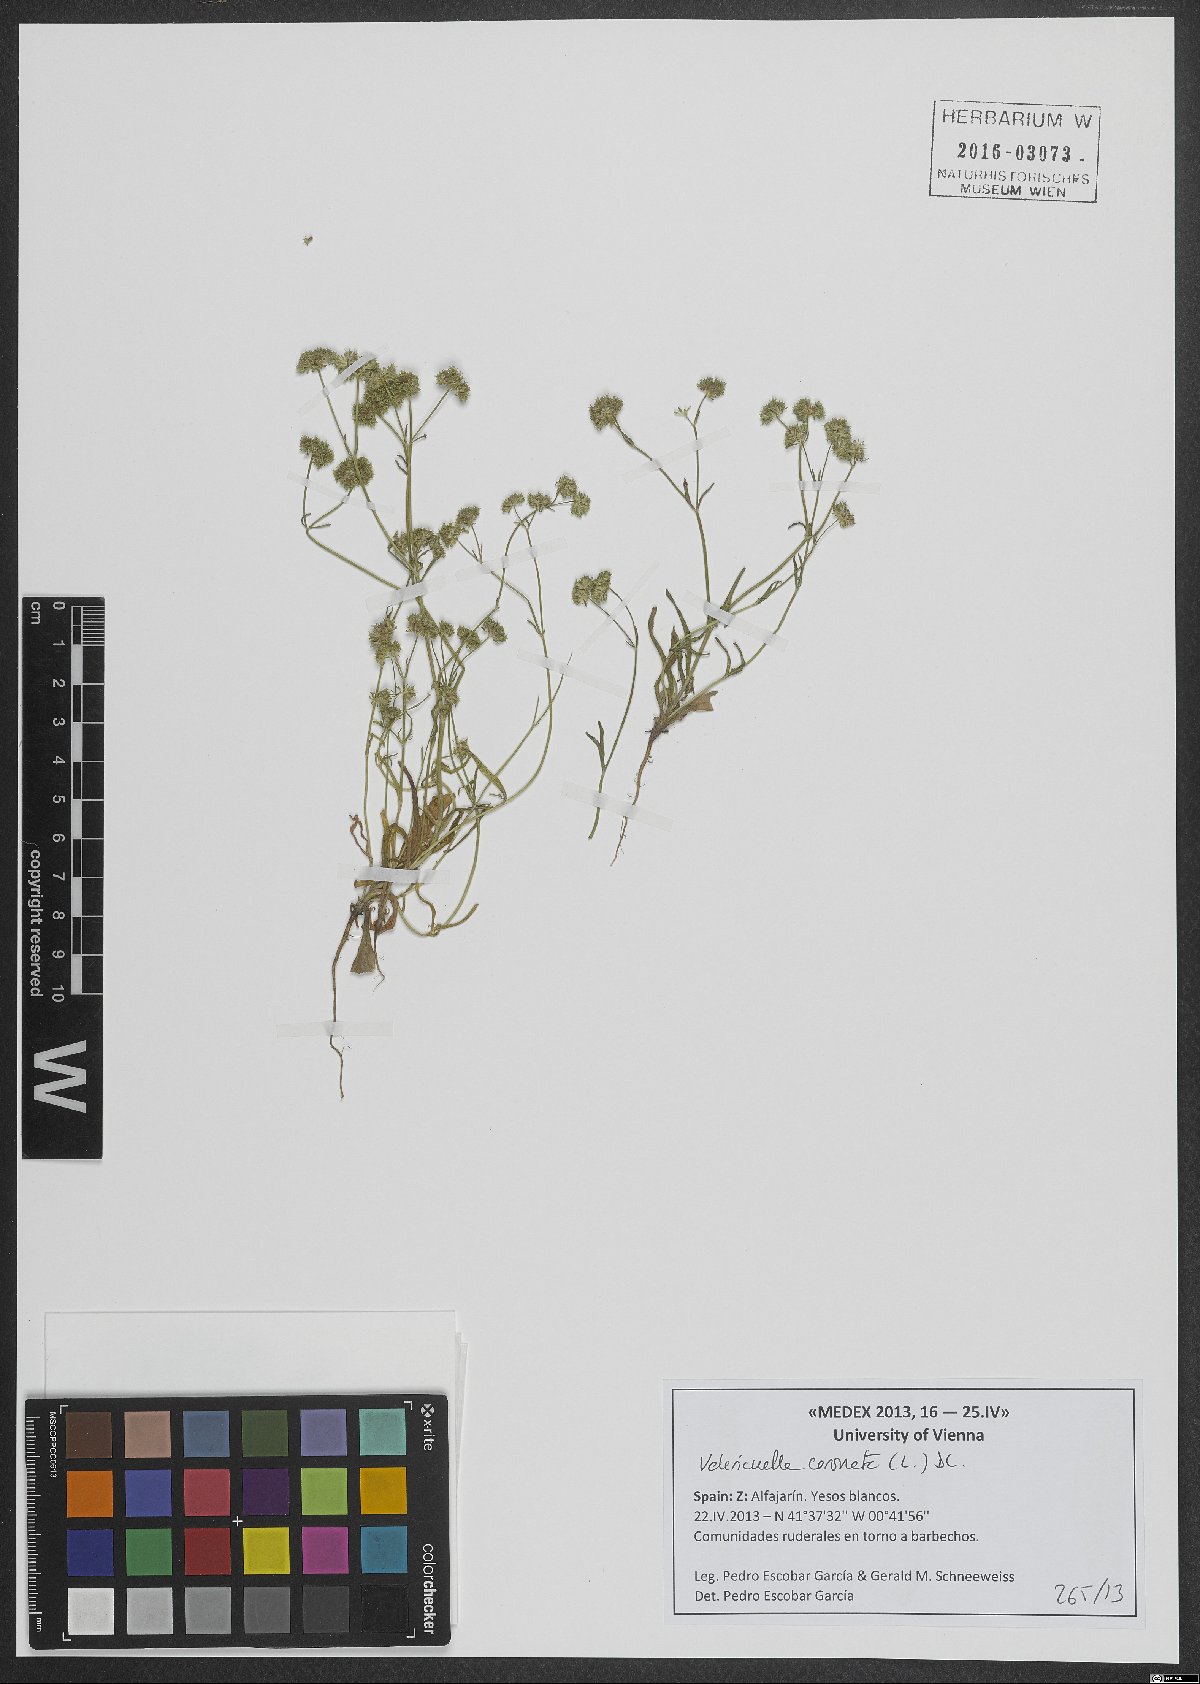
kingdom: Plantae
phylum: Tracheophyta
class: Magnoliopsida
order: Dipsacales
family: Caprifoliaceae
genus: Valerianella
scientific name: Valerianella coronata
